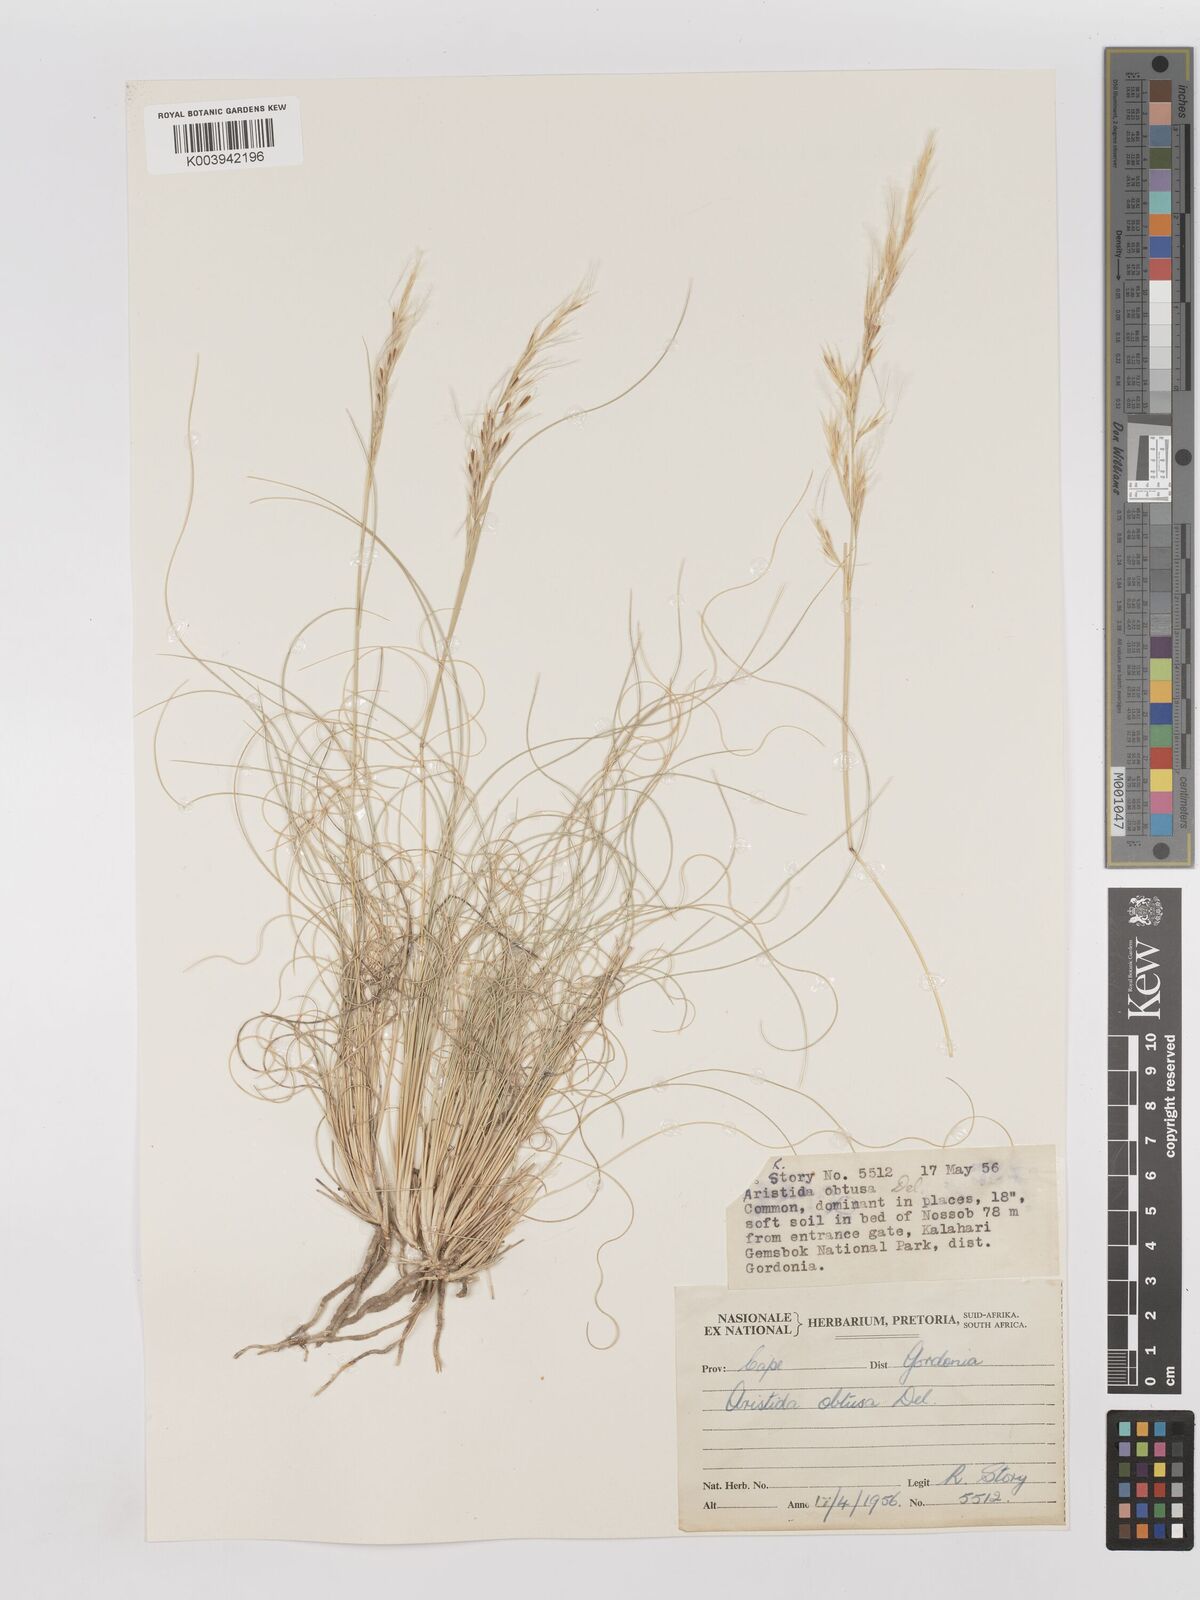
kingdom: Plantae
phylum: Tracheophyta
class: Liliopsida
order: Poales
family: Poaceae
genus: Stipagrostis
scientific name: Stipagrostis obtusa
